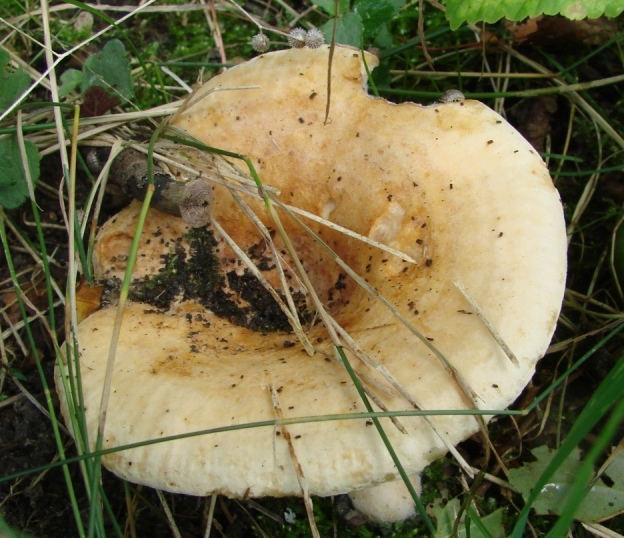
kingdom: Fungi
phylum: Basidiomycota
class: Agaricomycetes
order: Russulales
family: Russulaceae
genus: Lactarius
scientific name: Lactarius evosmus
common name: bæltet mælkehat
